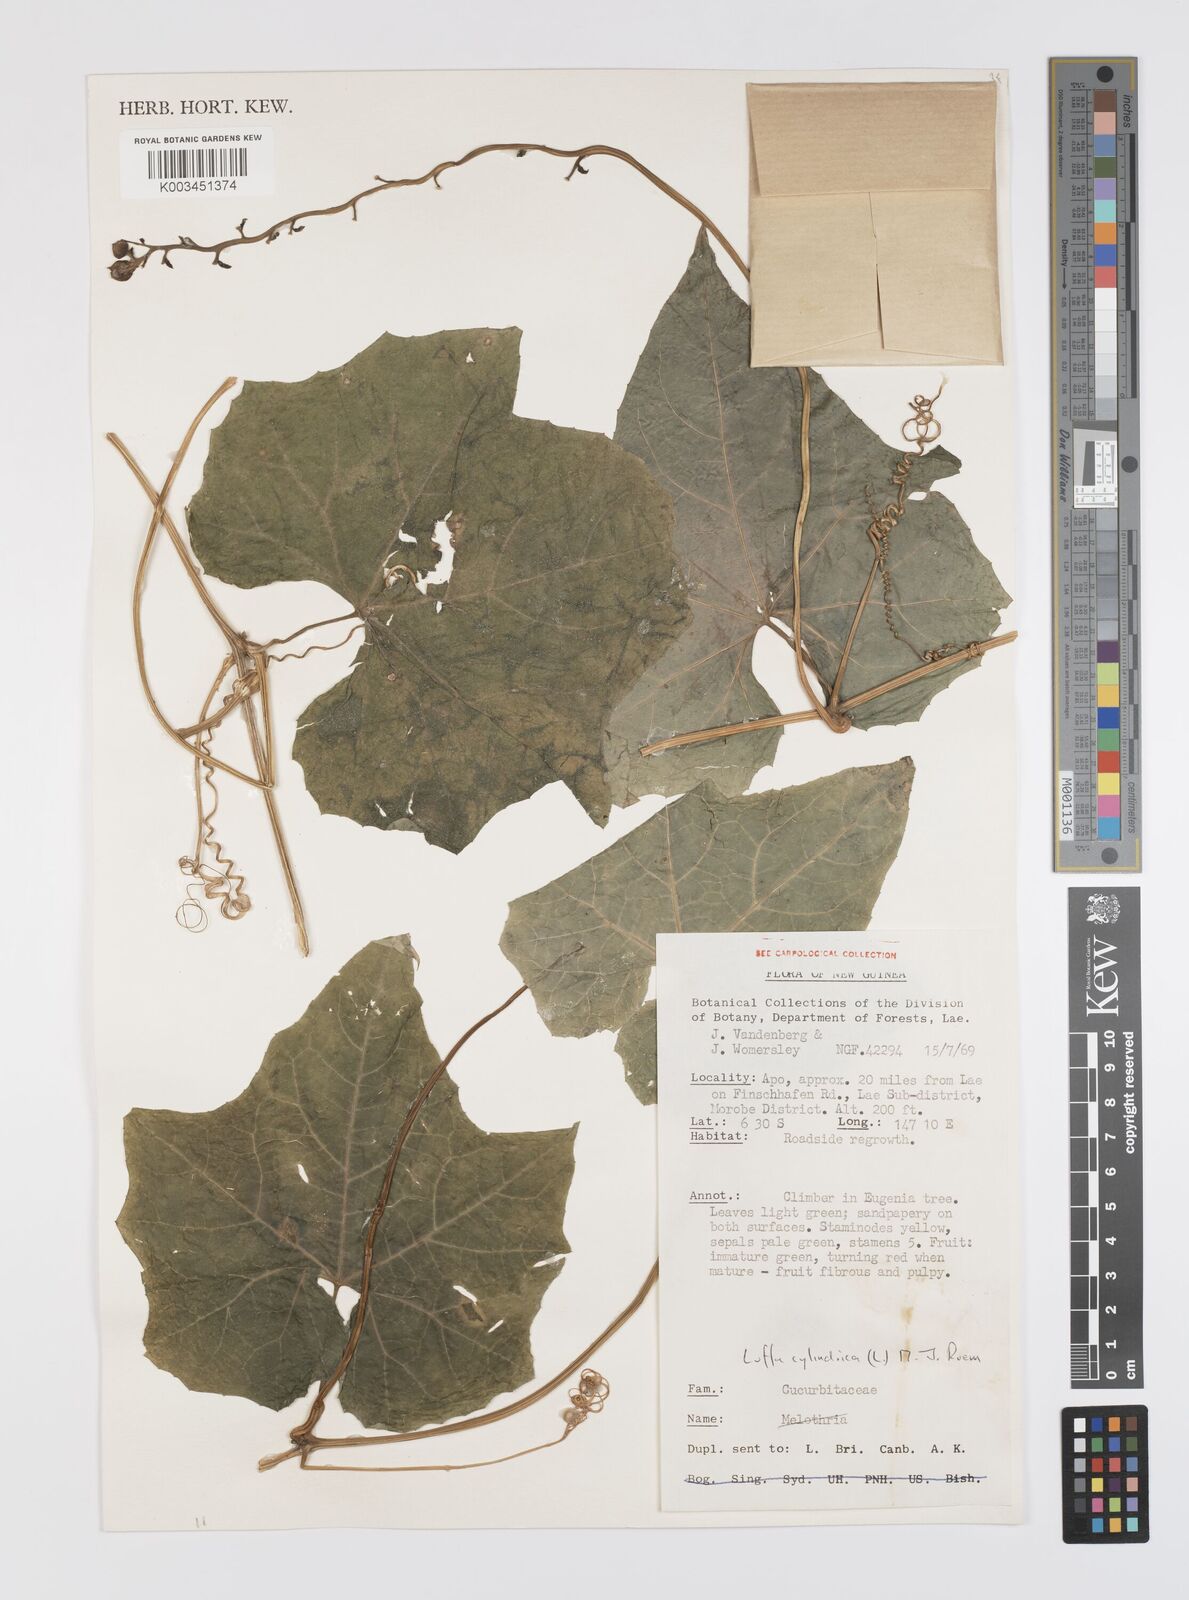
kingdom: Plantae
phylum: Tracheophyta
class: Magnoliopsida
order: Cucurbitales
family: Cucurbitaceae
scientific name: Cucurbitaceae
